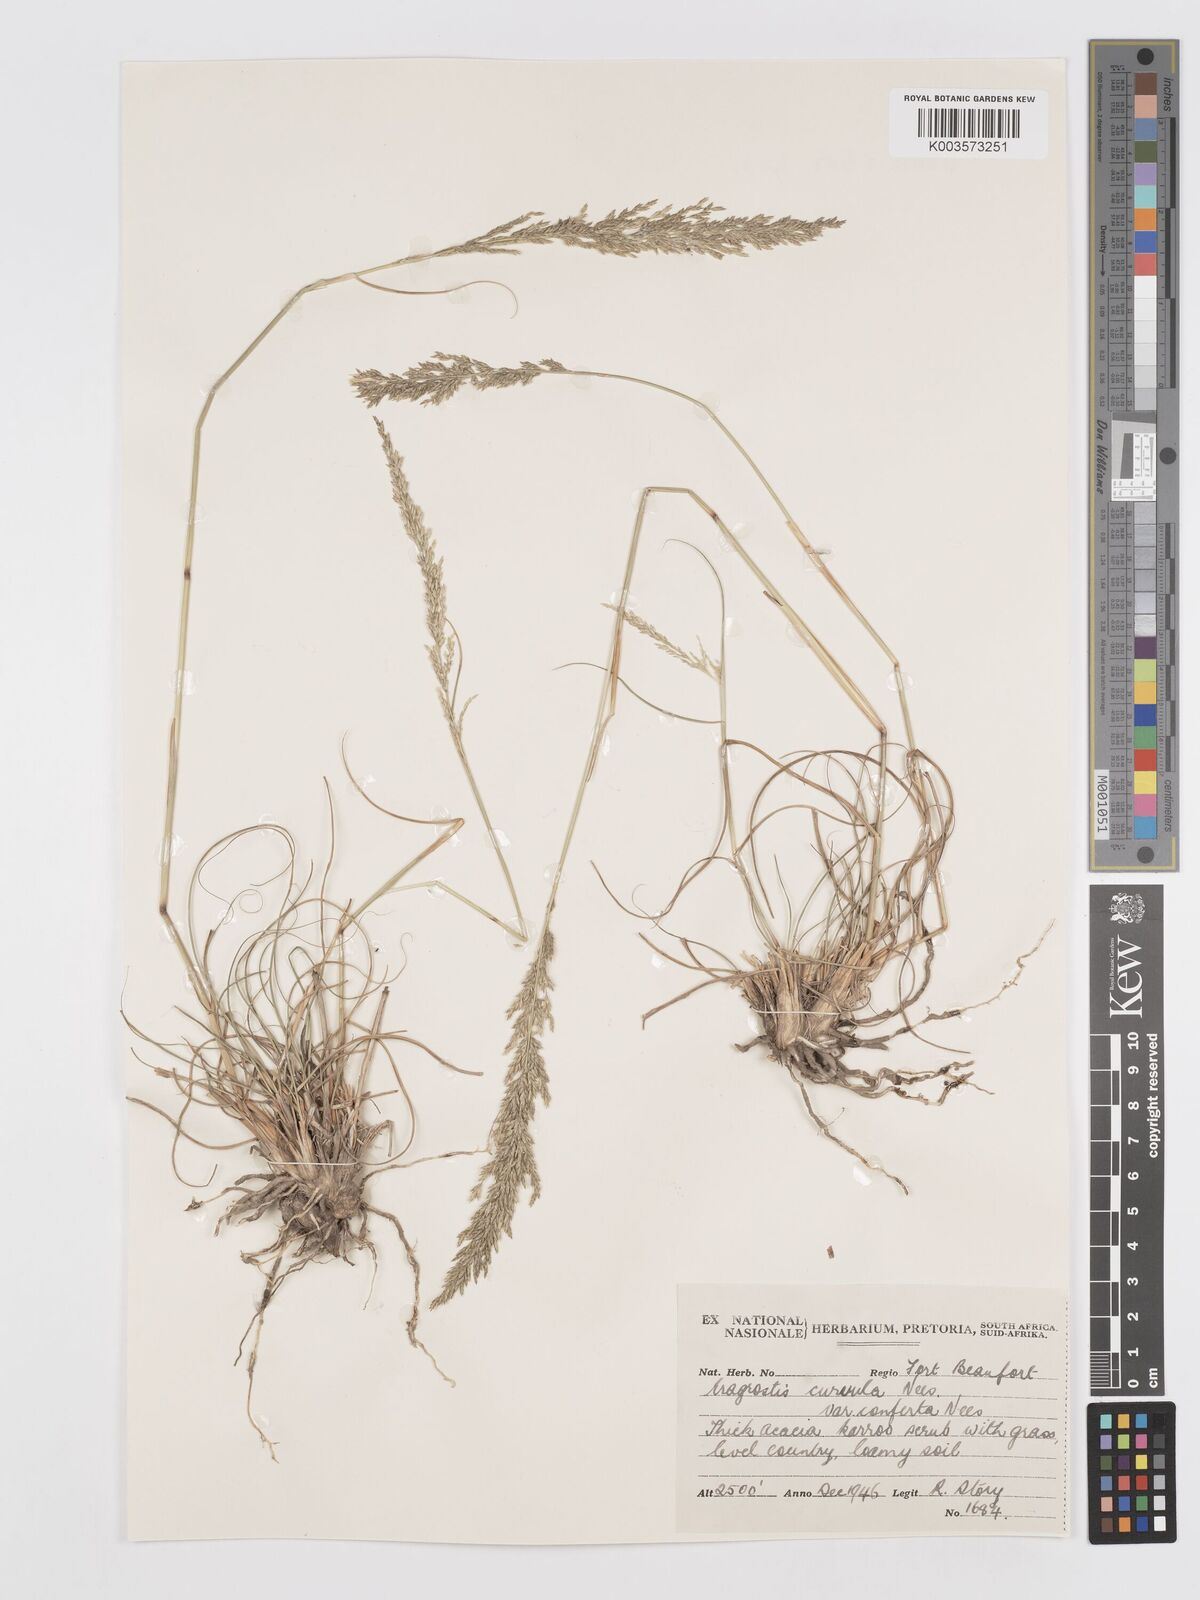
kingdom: Plantae
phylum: Tracheophyta
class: Liliopsida
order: Poales
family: Poaceae
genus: Eragrostis
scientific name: Eragrostis curvula
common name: African love-grass
